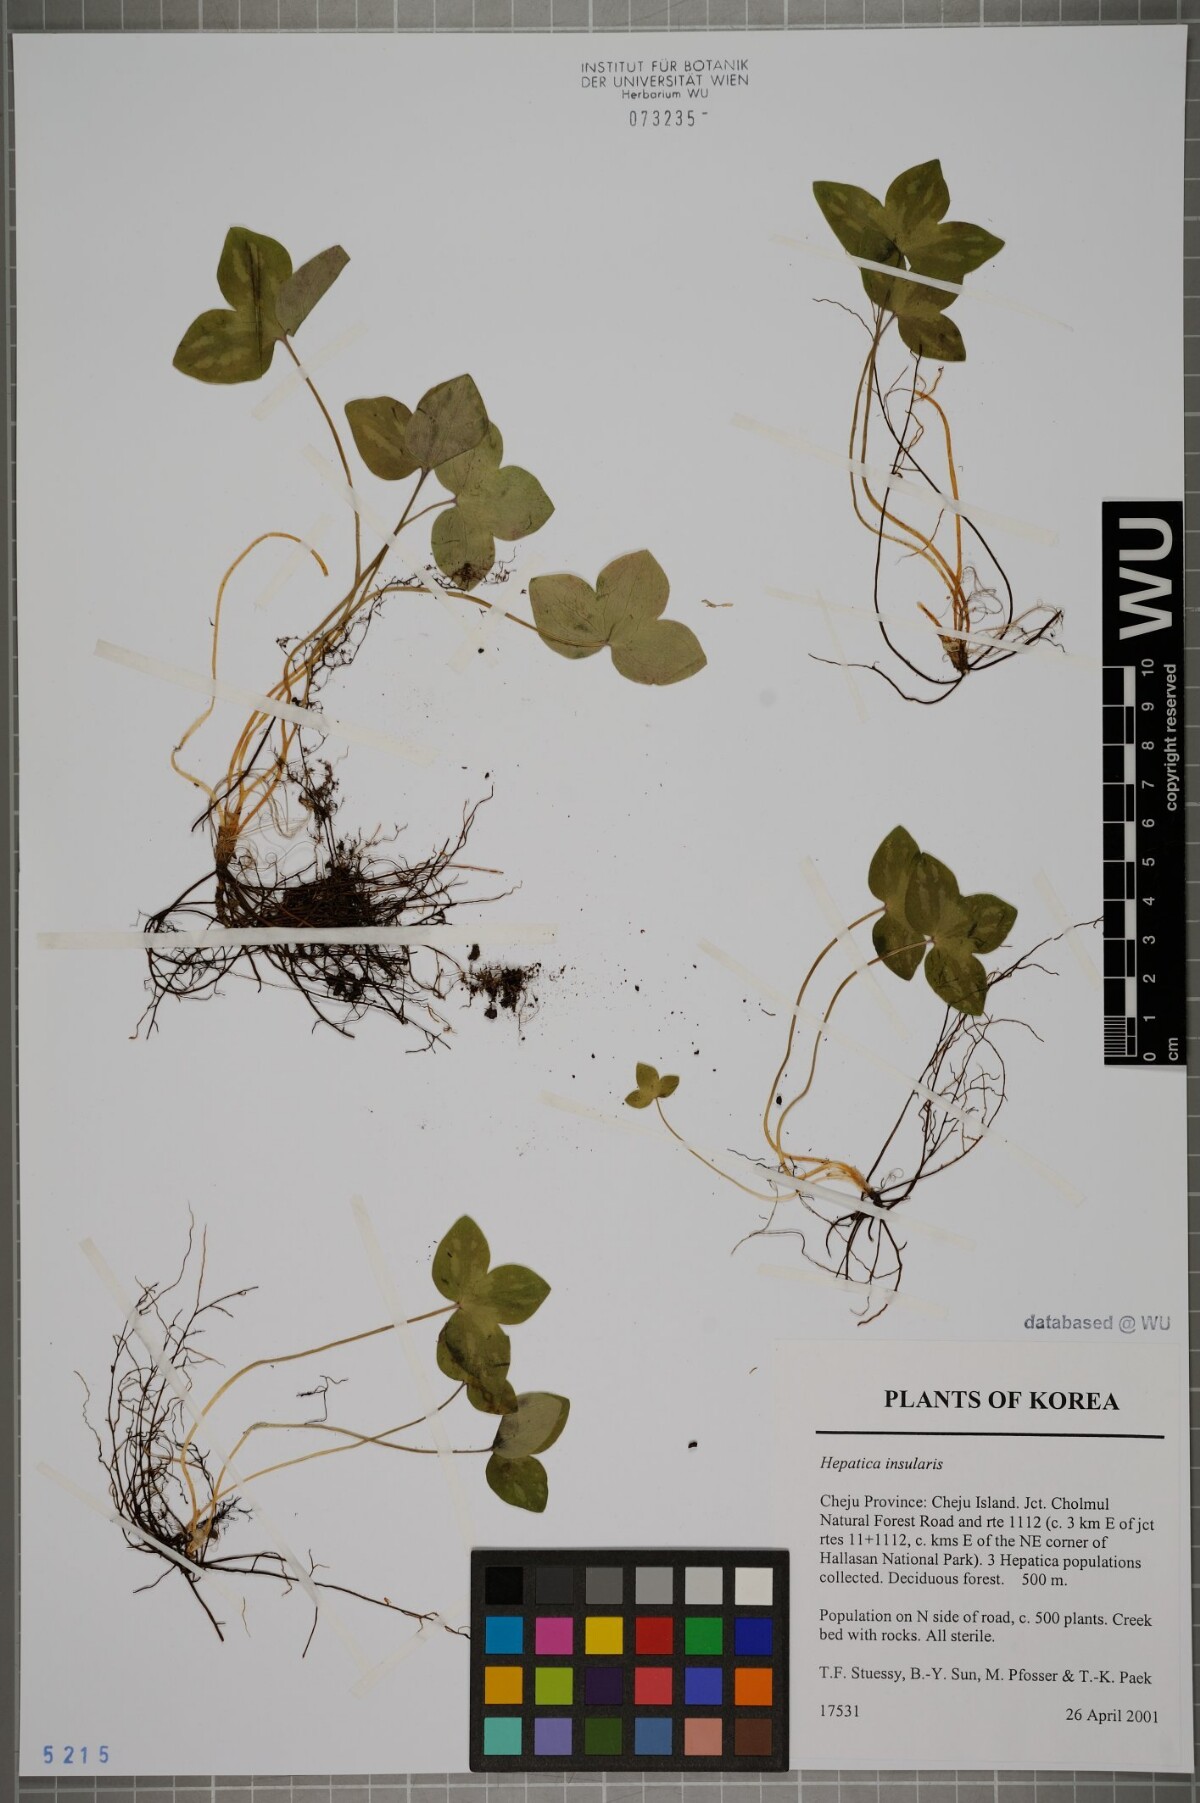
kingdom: Plantae
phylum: Tracheophyta
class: Magnoliopsida
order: Ranunculales
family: Ranunculaceae
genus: Hepatica
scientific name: Hepatica insularis
